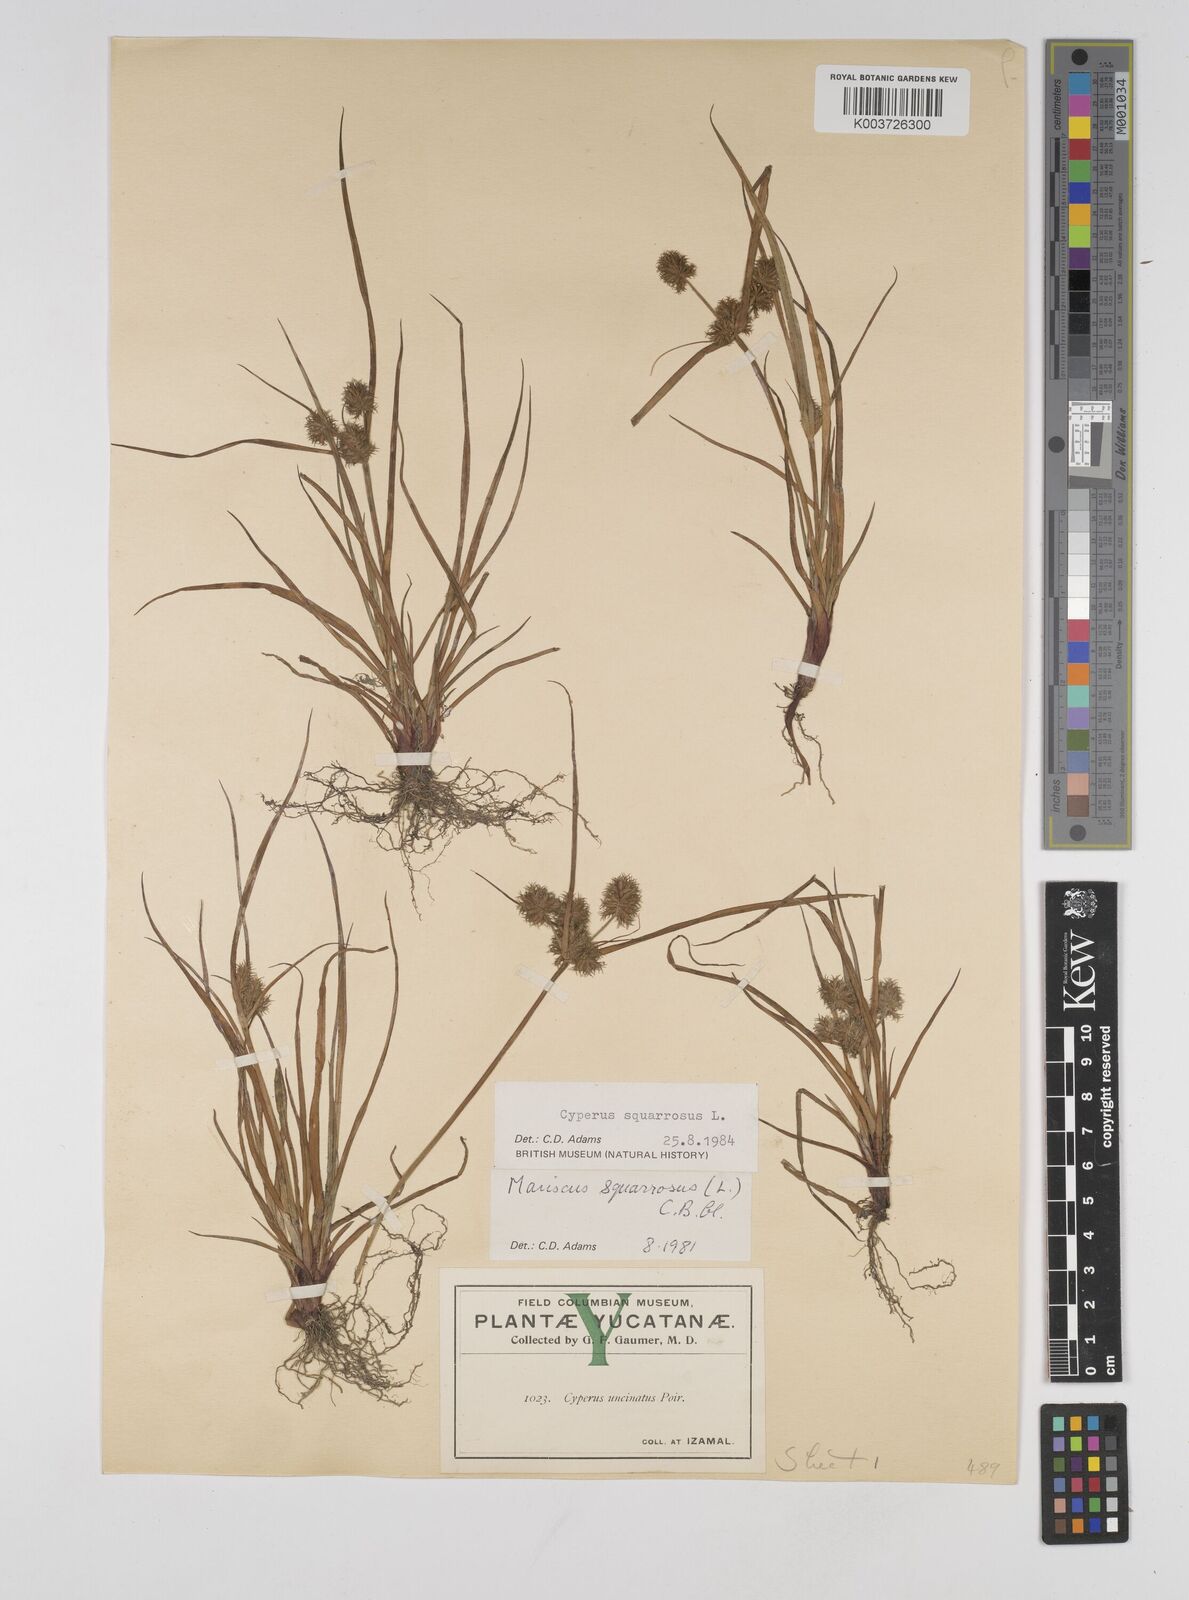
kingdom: Plantae
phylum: Tracheophyta
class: Liliopsida
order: Poales
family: Cyperaceae
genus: Cyperus
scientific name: Cyperus squarrosus
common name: Awned cyperus
